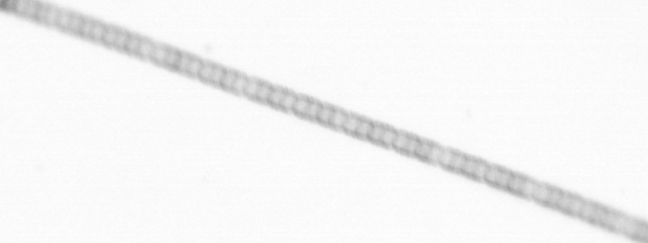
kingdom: Chromista
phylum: Ochrophyta
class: Bacillariophyceae
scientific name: Bacillariophyceae
